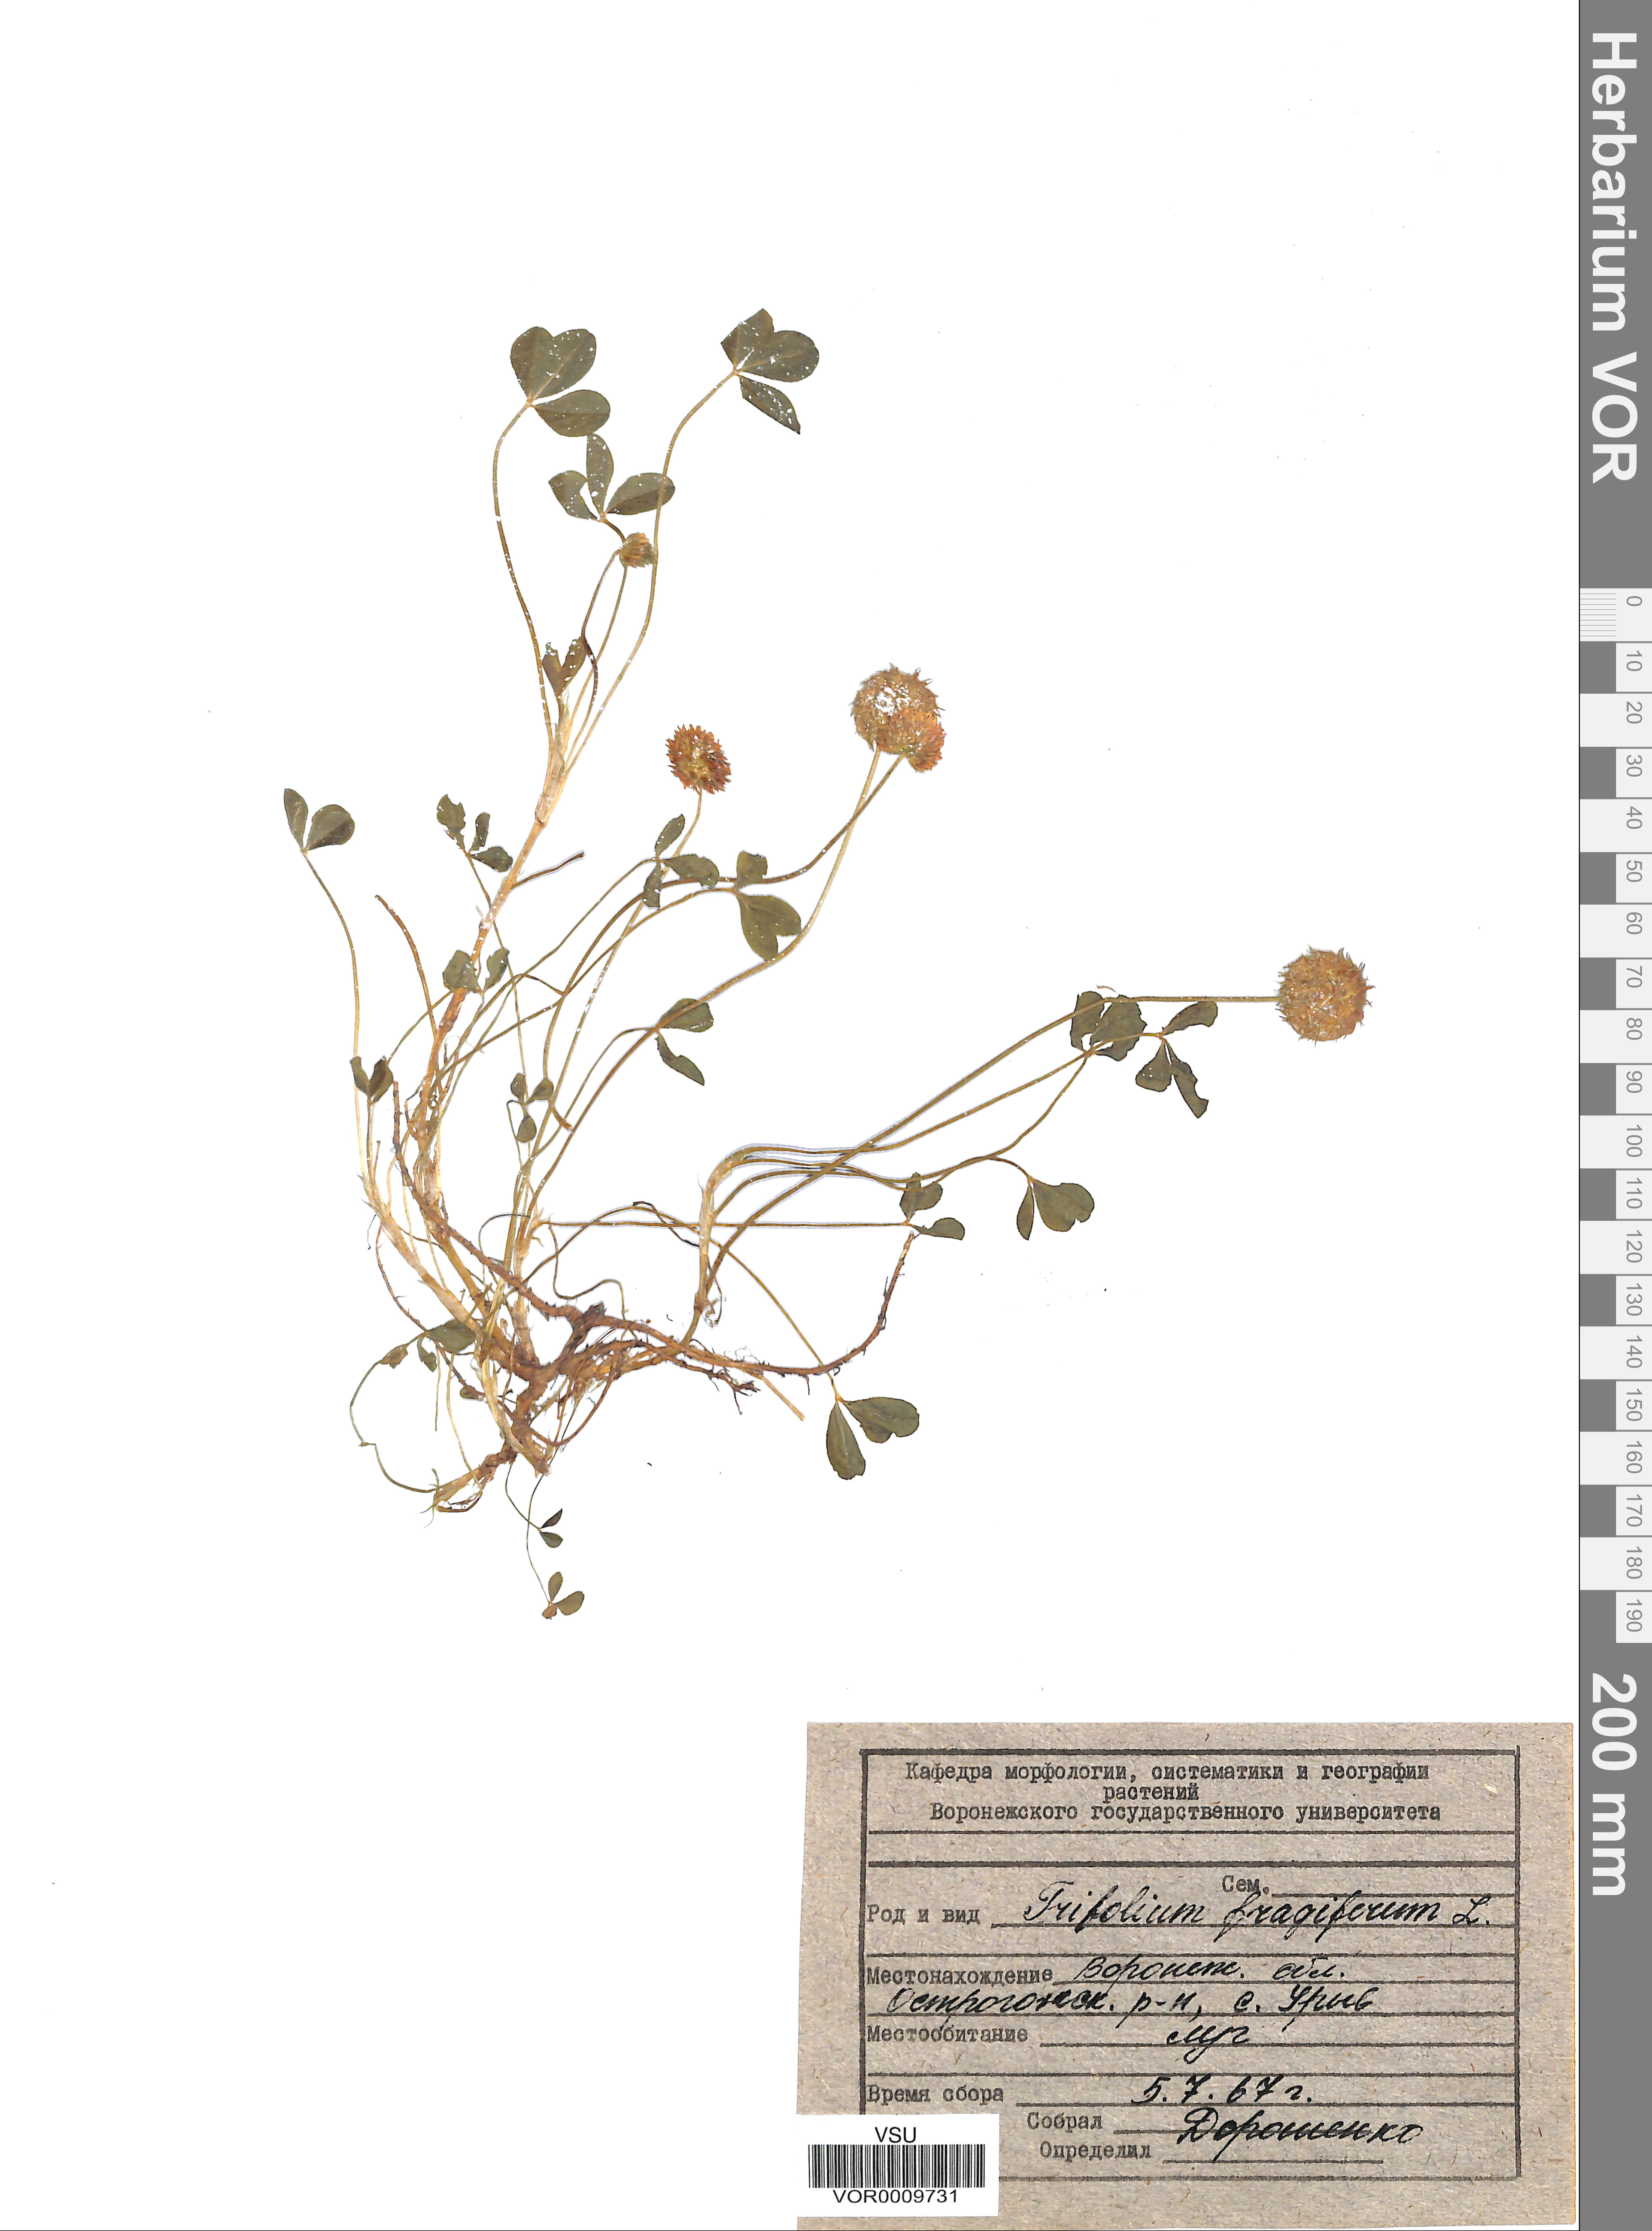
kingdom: Plantae
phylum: Tracheophyta
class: Magnoliopsida
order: Fabales
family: Fabaceae
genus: Trifolium
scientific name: Trifolium fragiferum
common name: Strawberry clover
